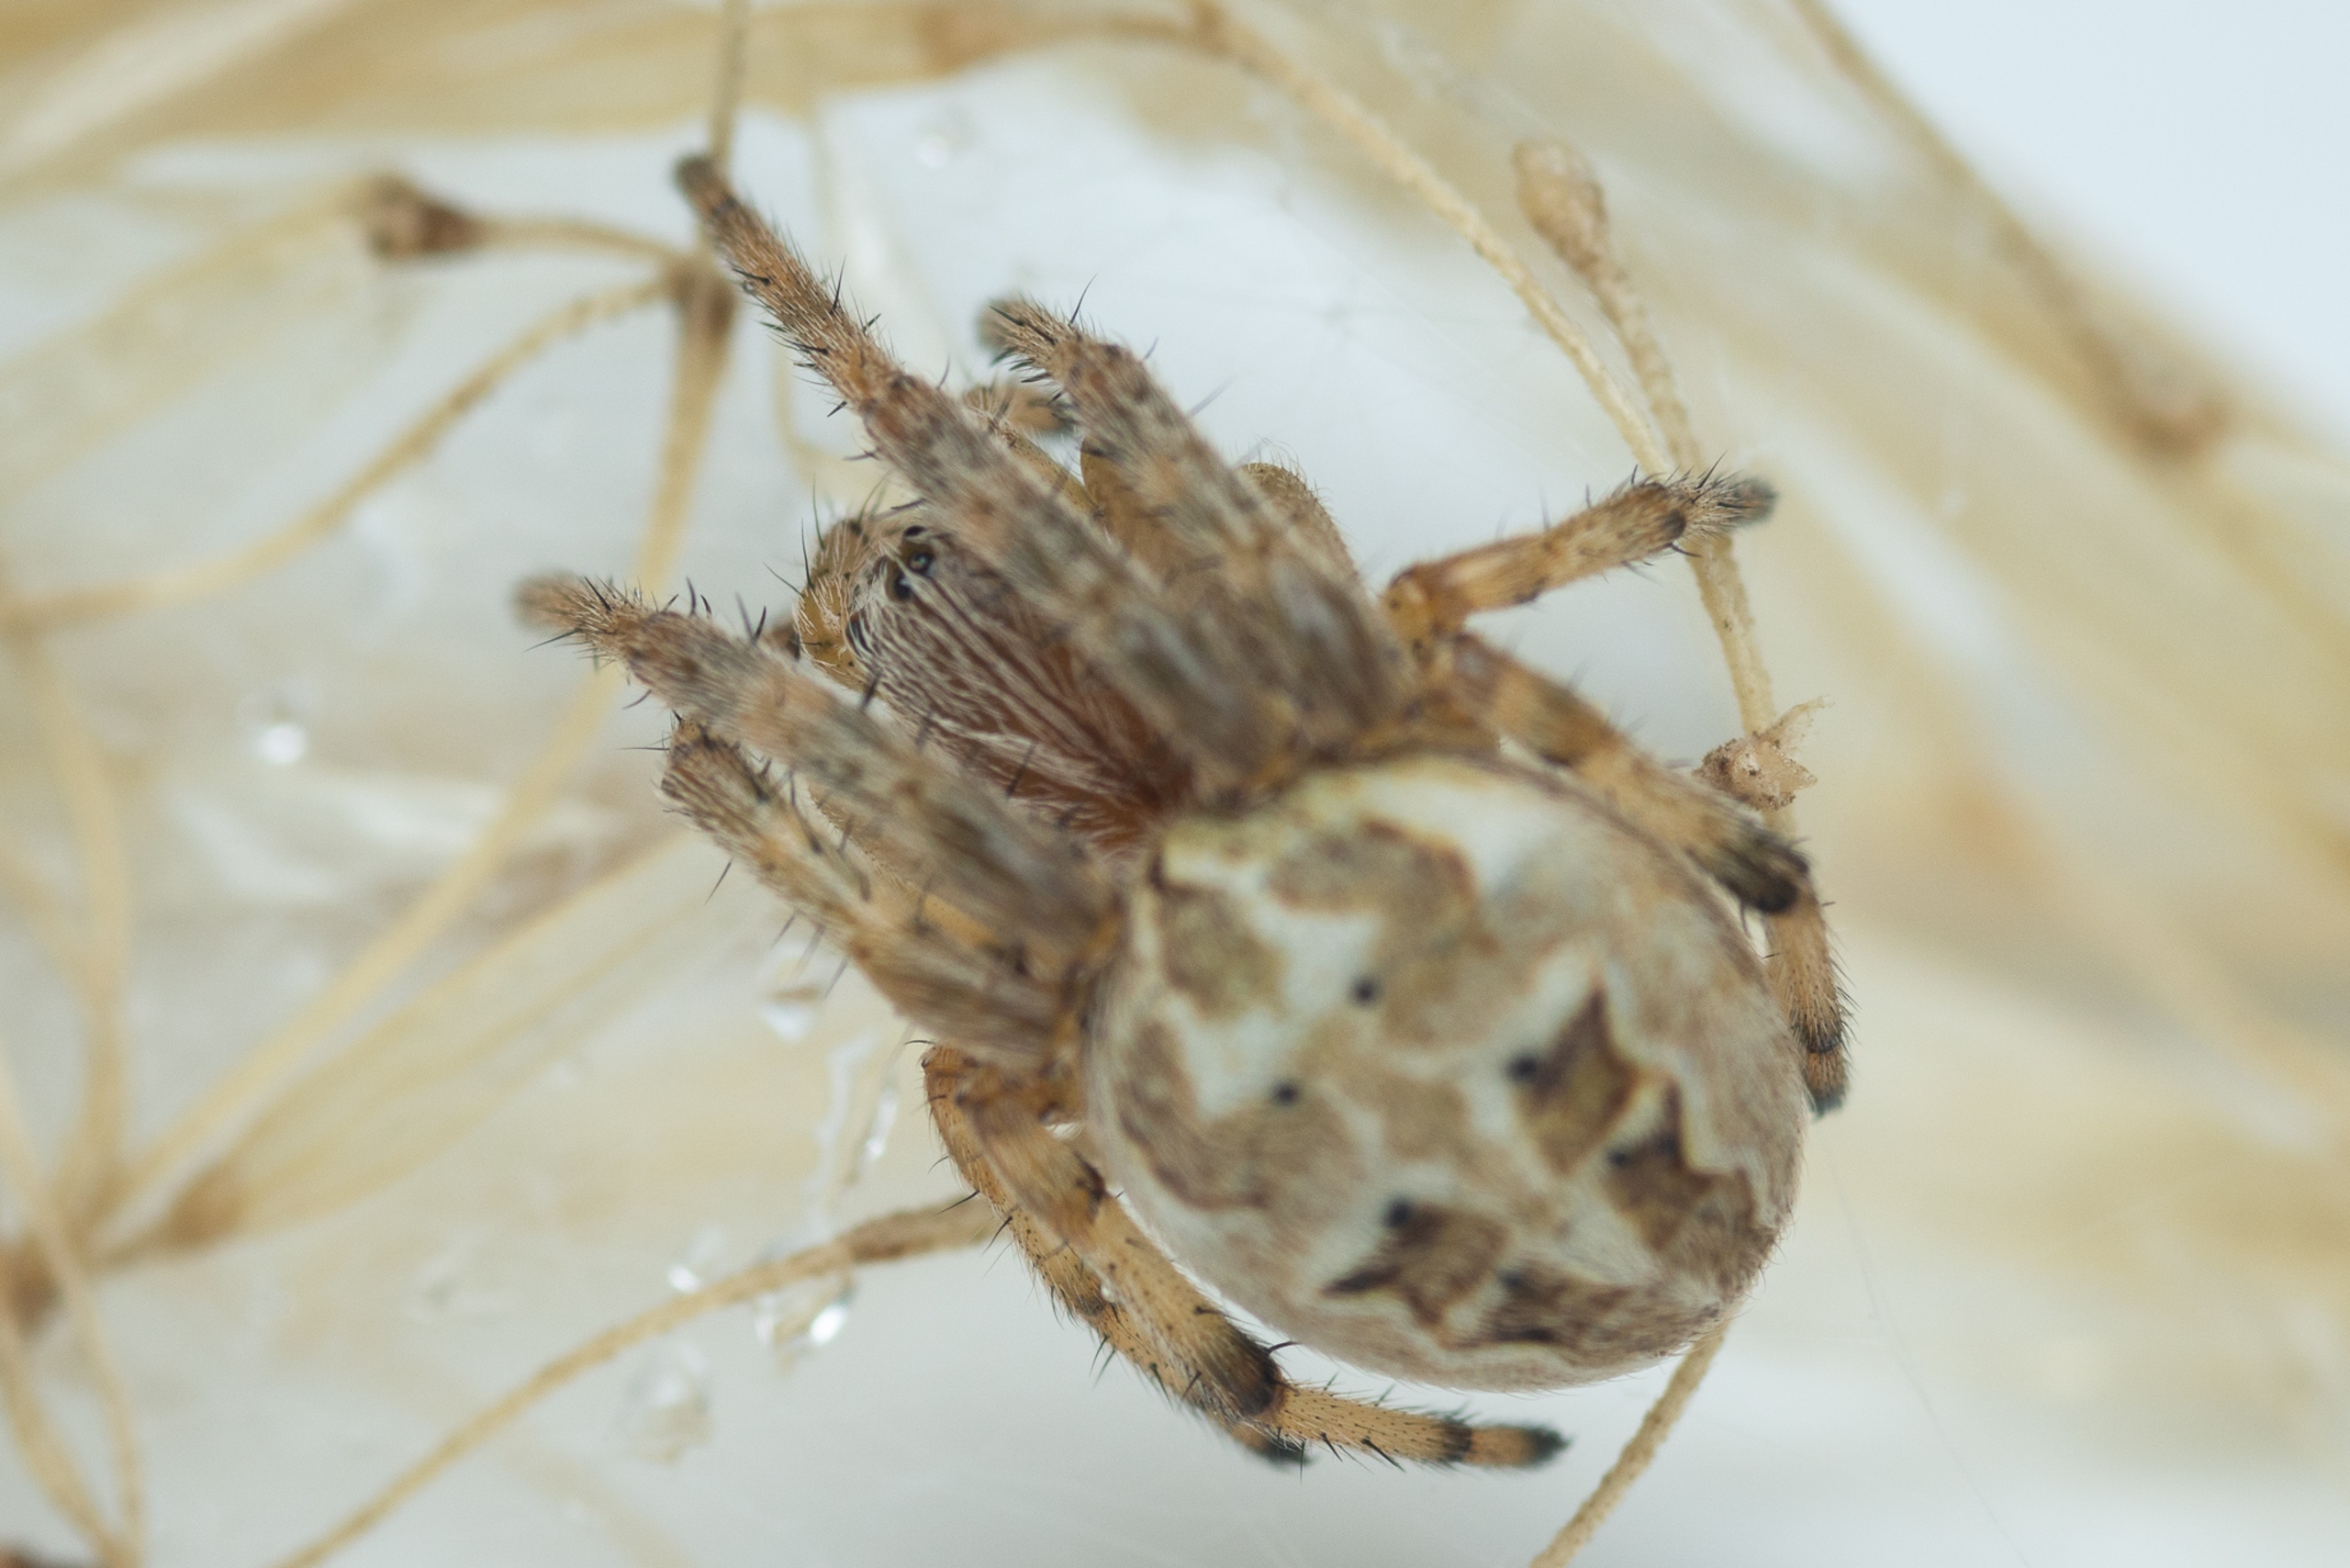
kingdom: Animalia
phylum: Arthropoda
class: Arachnida
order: Araneae
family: Araneidae
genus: Larinioides
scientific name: Larinioides cornutus
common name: Sivhjulspinder
